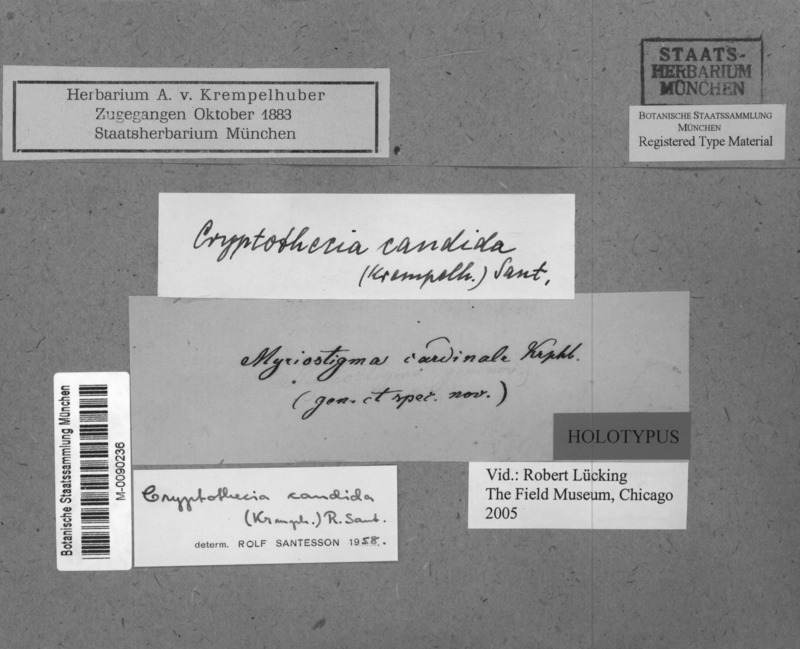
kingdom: Fungi
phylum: Ascomycota
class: Arthoniomycetes
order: Arthoniales
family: Arthoniaceae
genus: Myriostigma
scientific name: Myriostigma candidum
